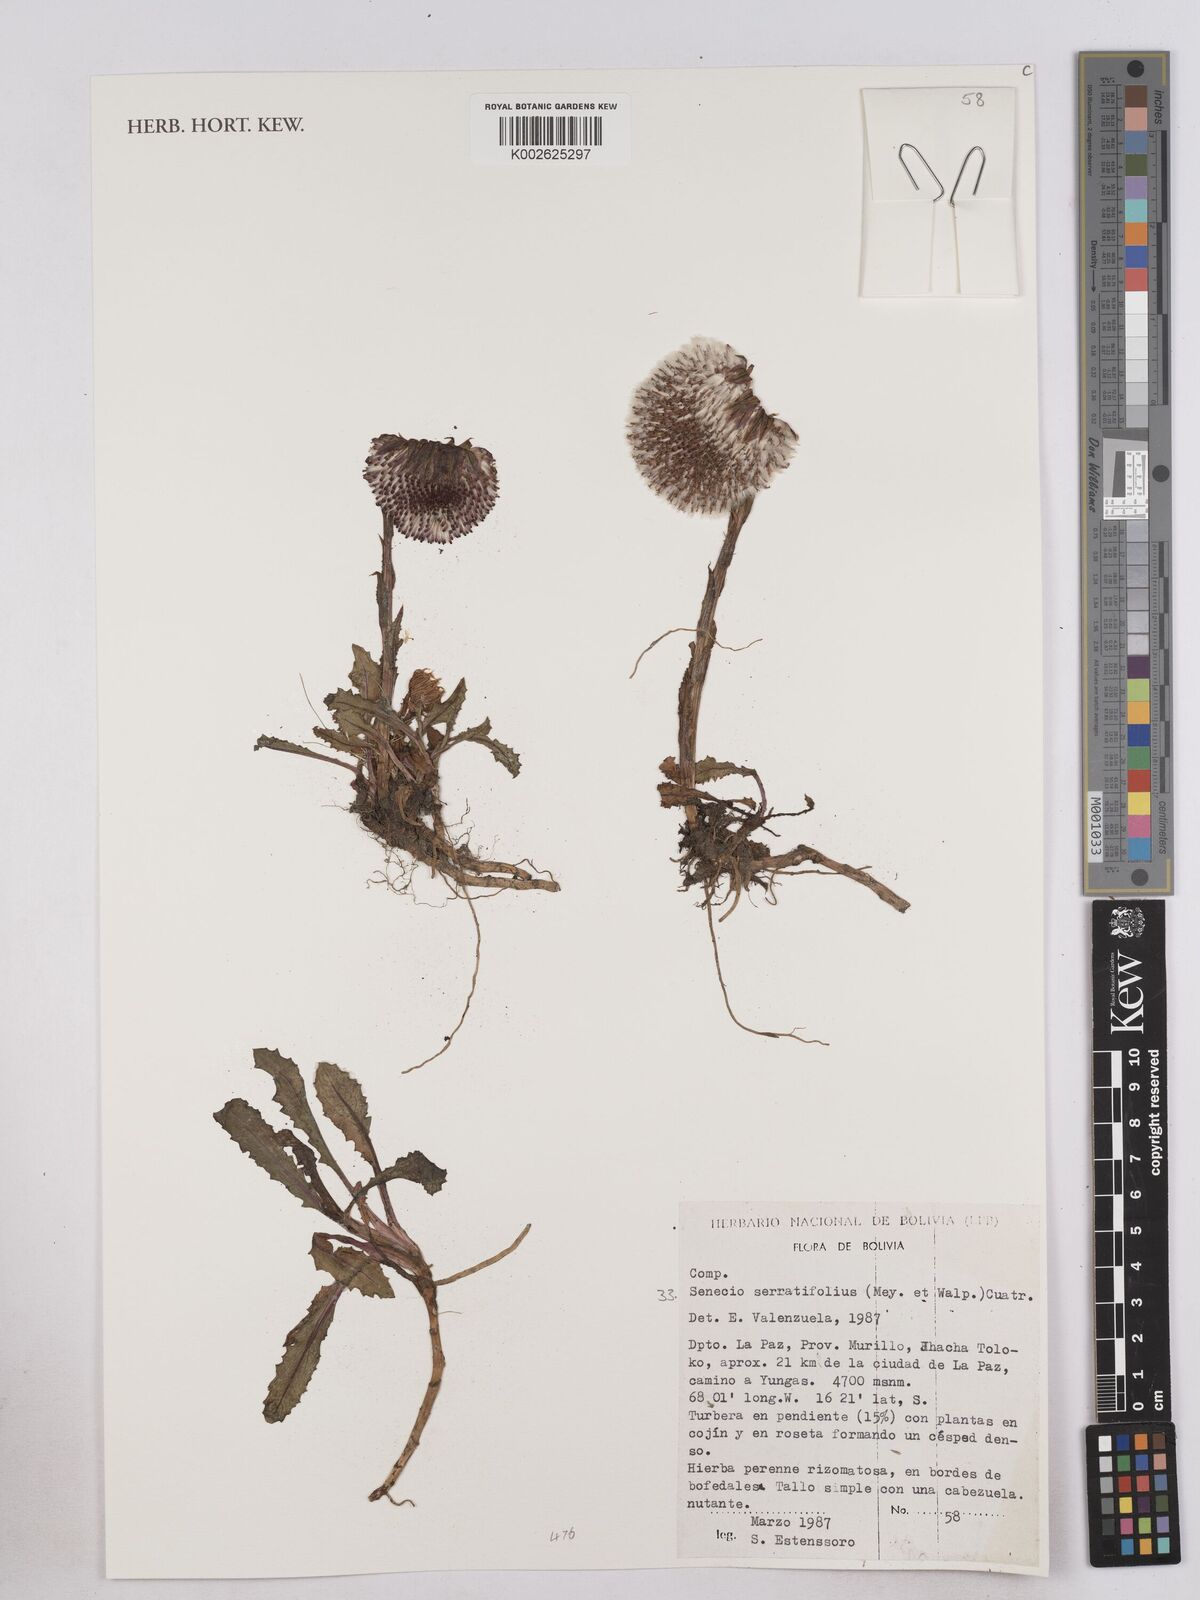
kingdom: Plantae
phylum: Tracheophyta
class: Magnoliopsida
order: Asterales
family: Asteraceae
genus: Senecio
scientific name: Senecio serratifolius
